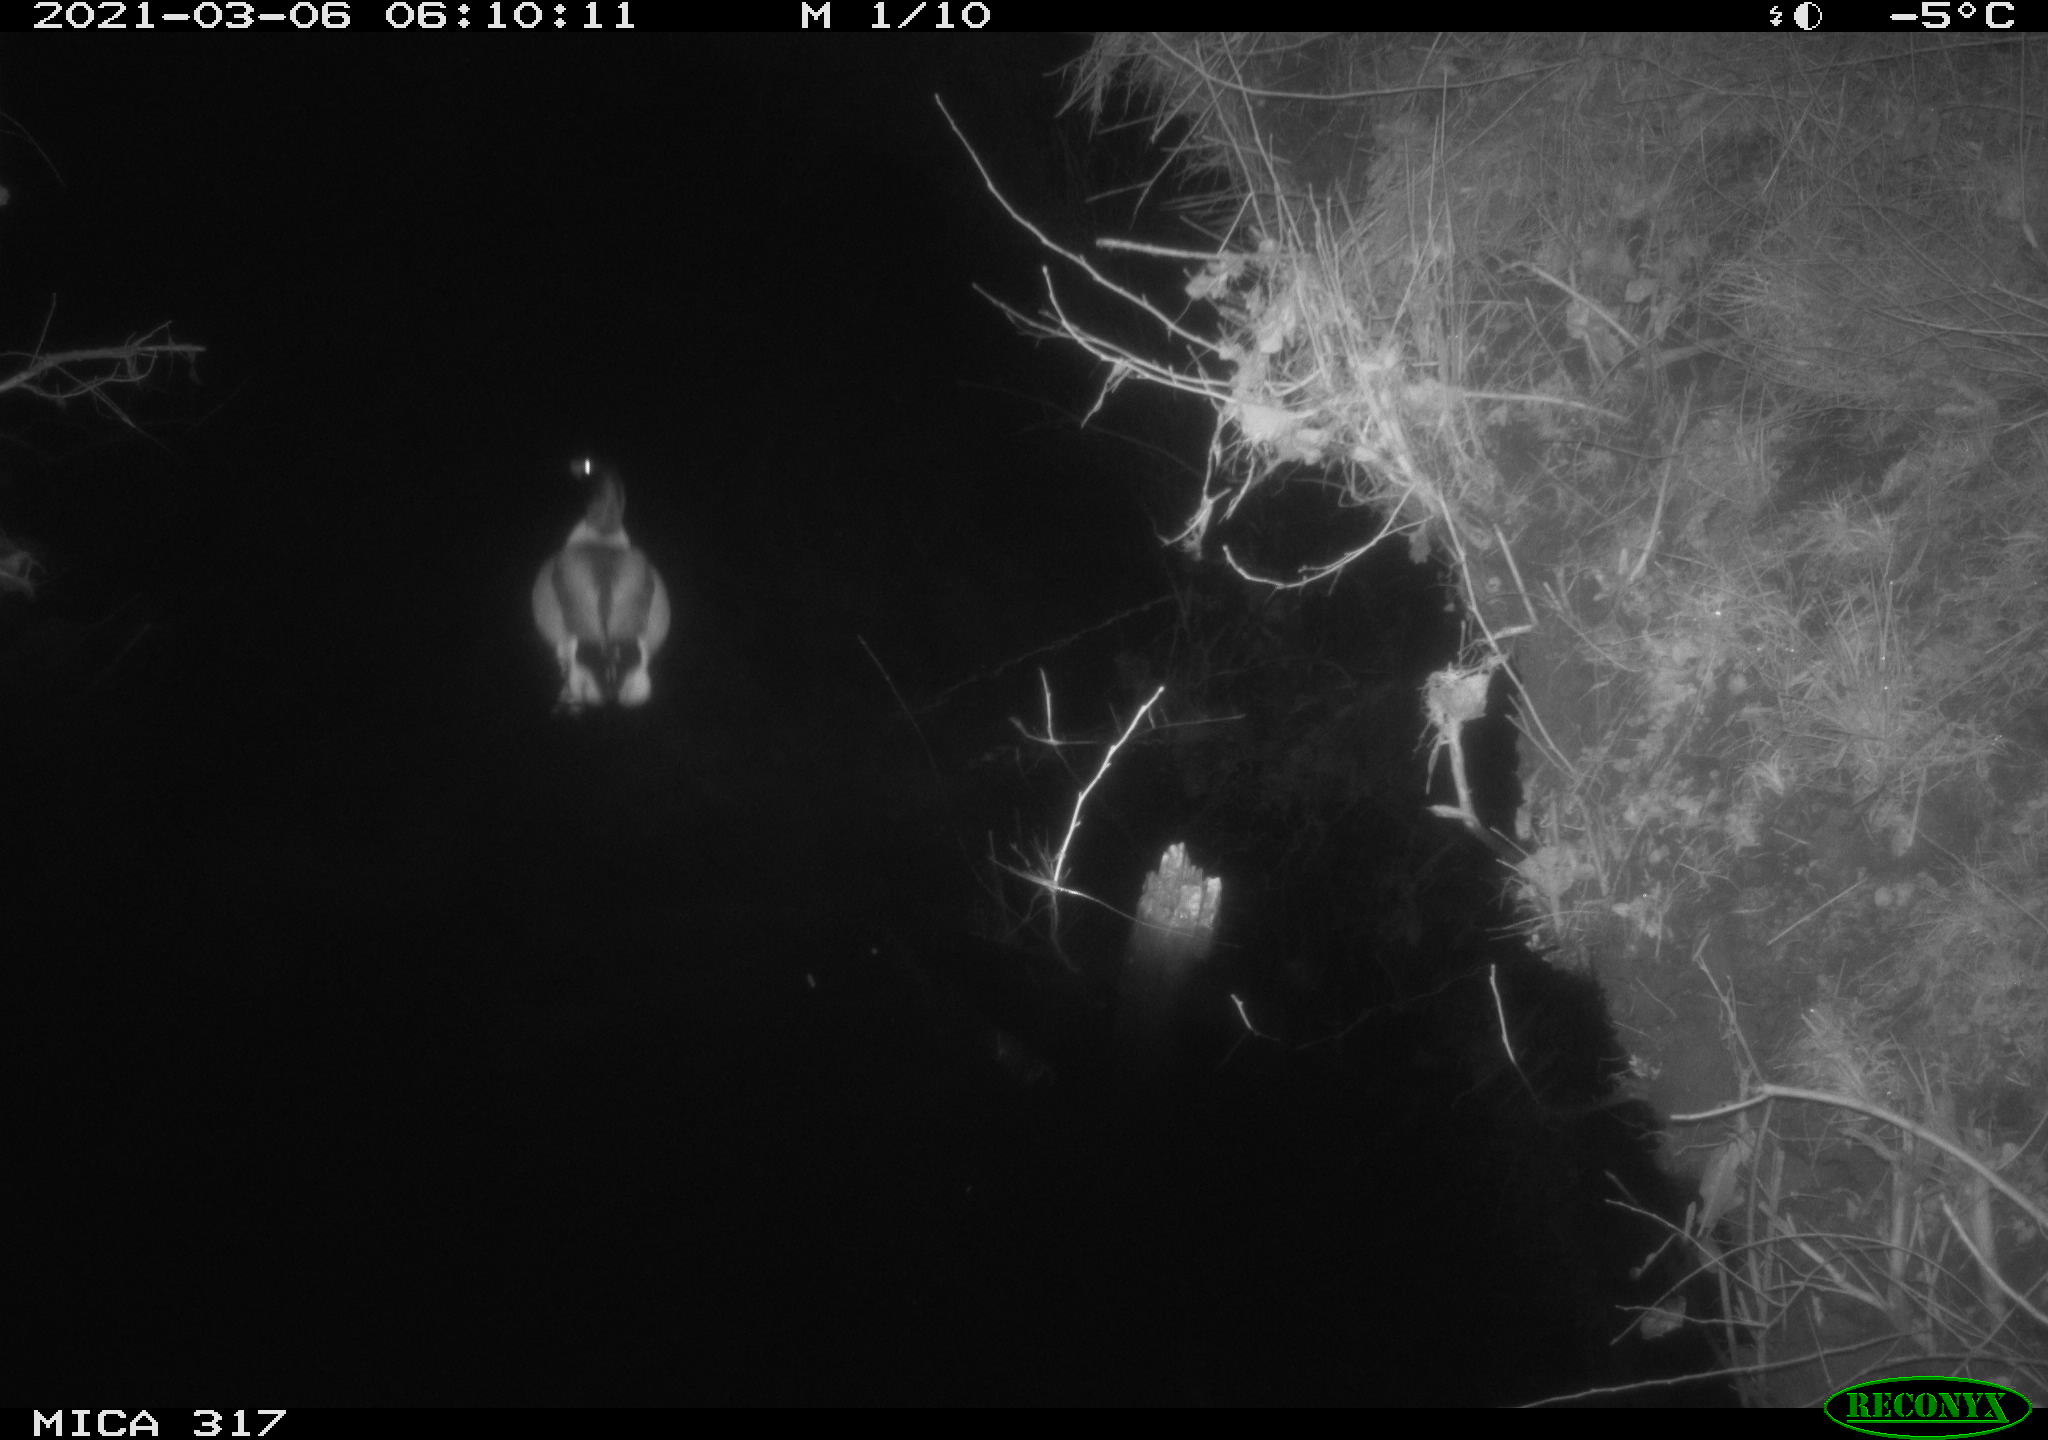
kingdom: Animalia
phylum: Chordata
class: Aves
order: Anseriformes
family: Anatidae
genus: Anas
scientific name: Anas platyrhynchos
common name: Mallard
